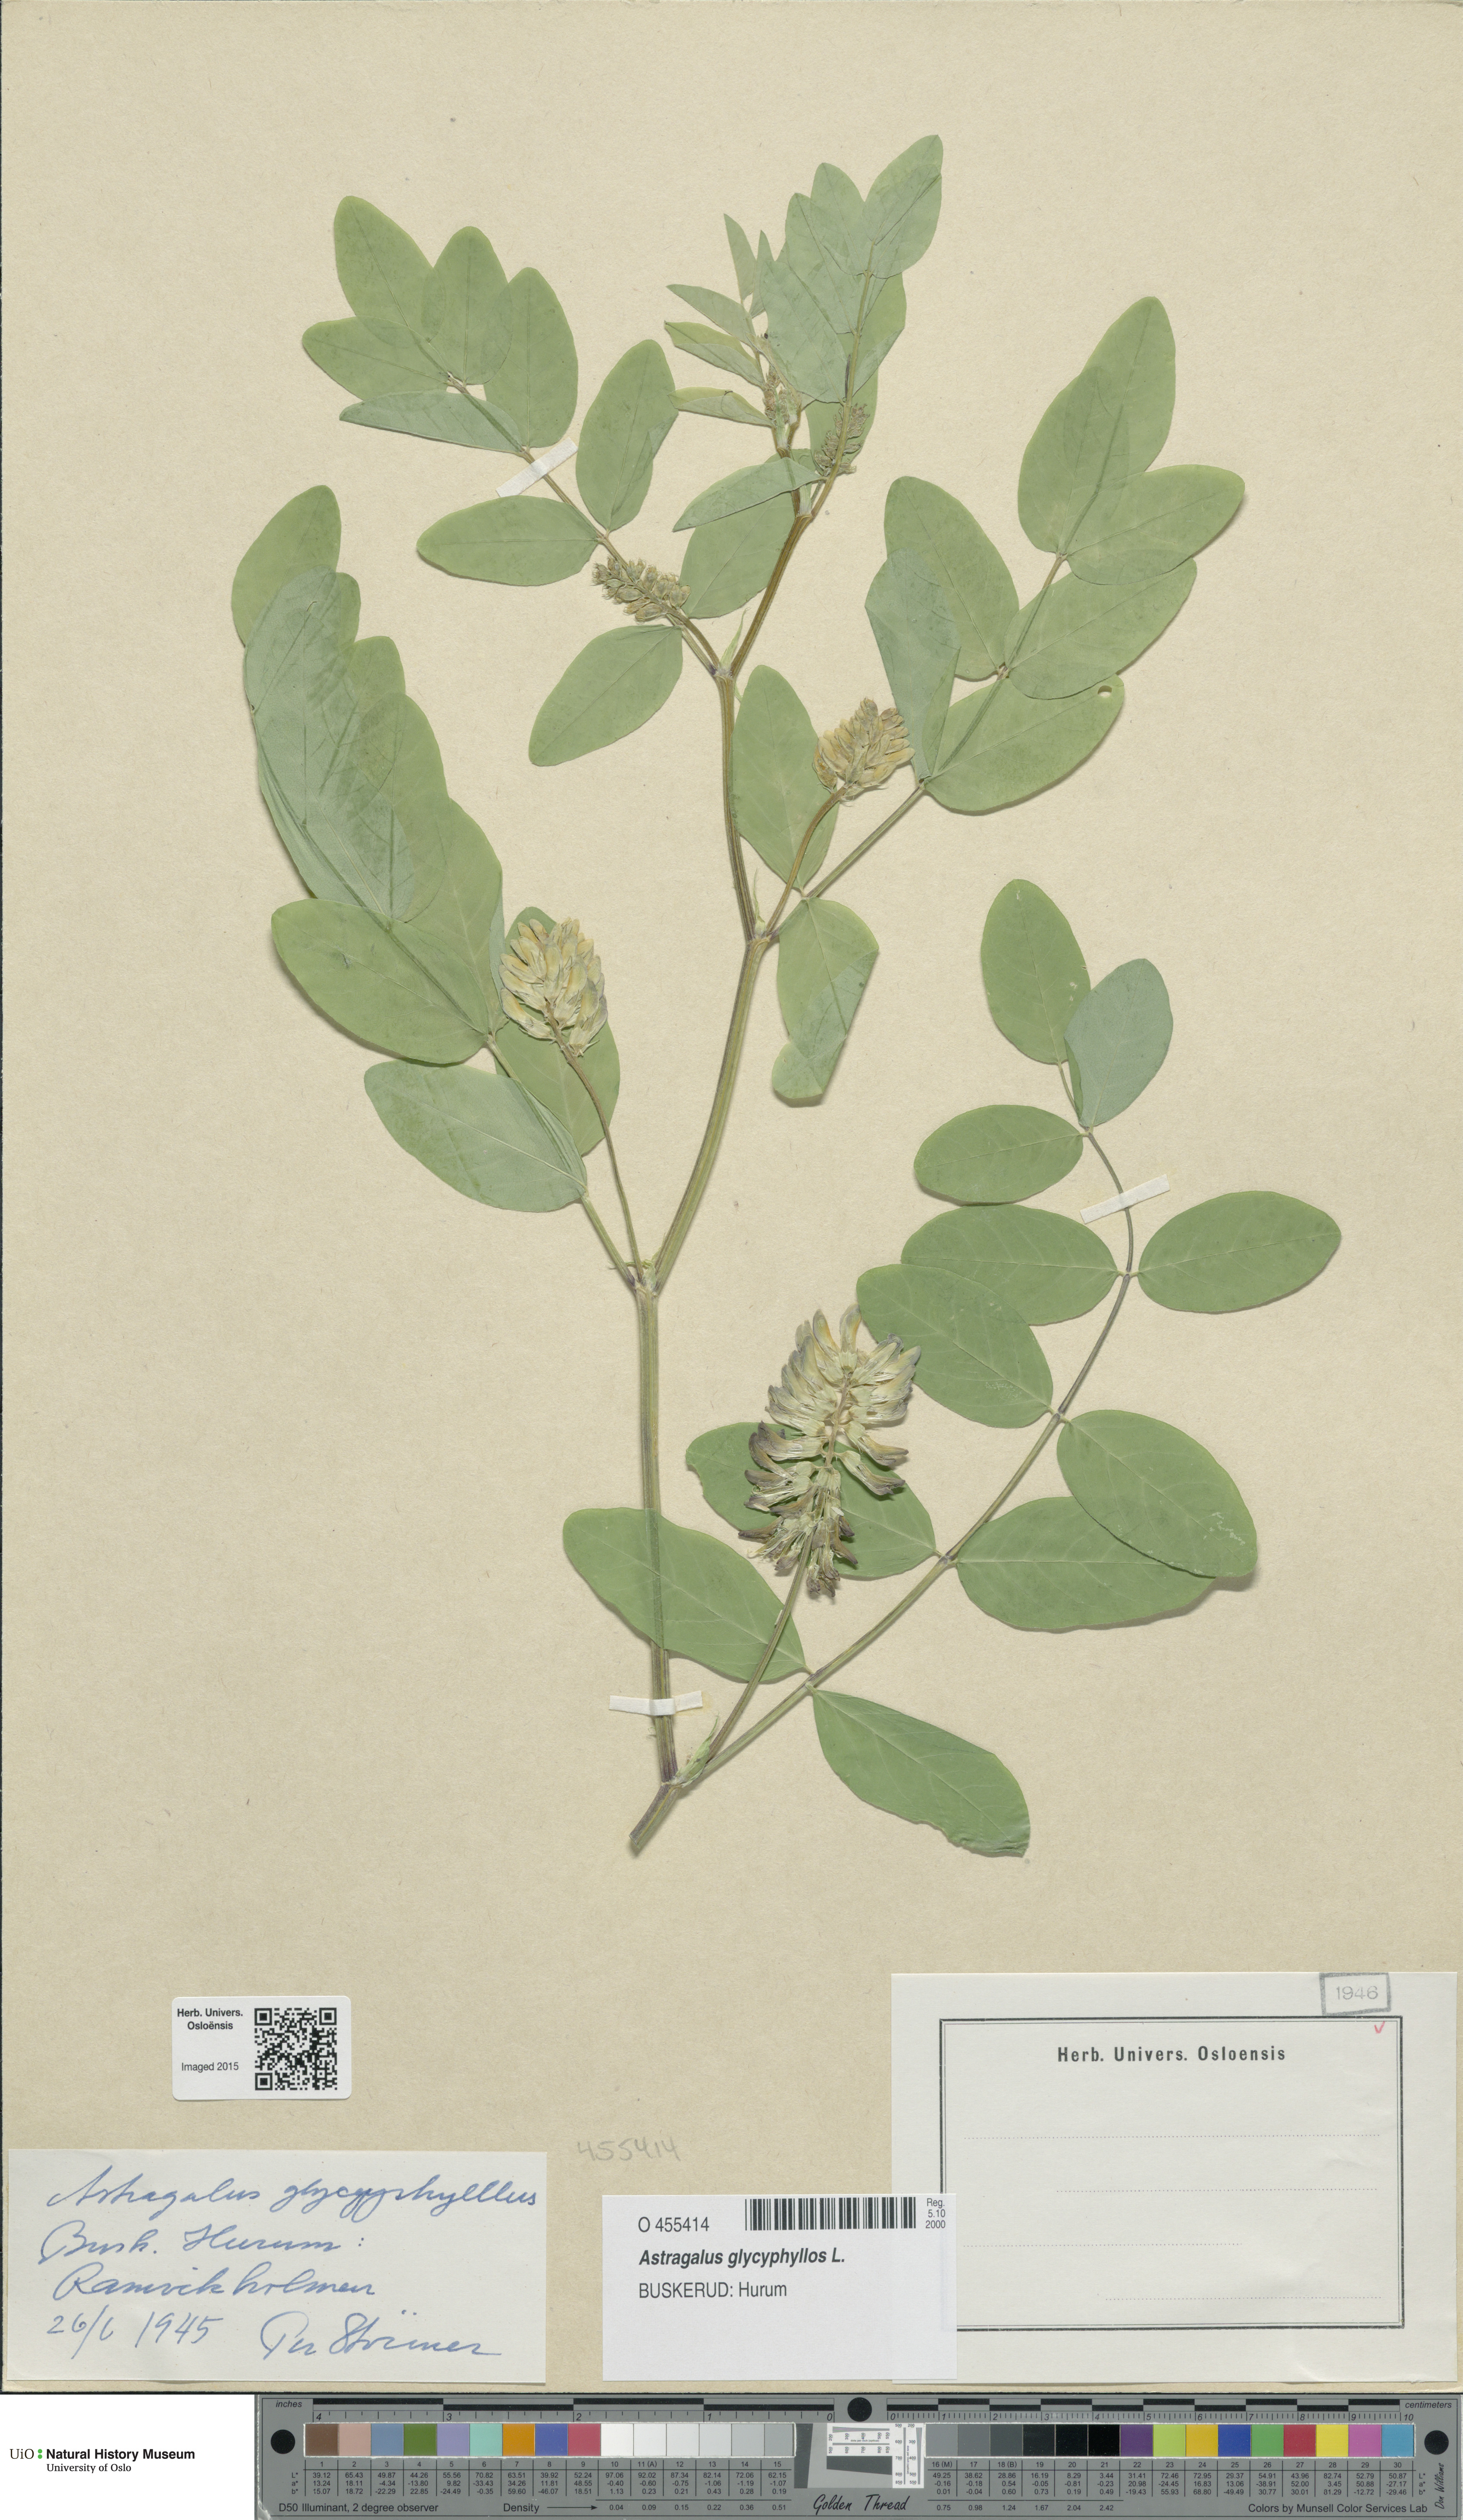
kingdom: Plantae
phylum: Tracheophyta
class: Magnoliopsida
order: Fabales
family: Fabaceae
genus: Astragalus
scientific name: Astragalus glycyphyllos
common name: Wild liquorice
